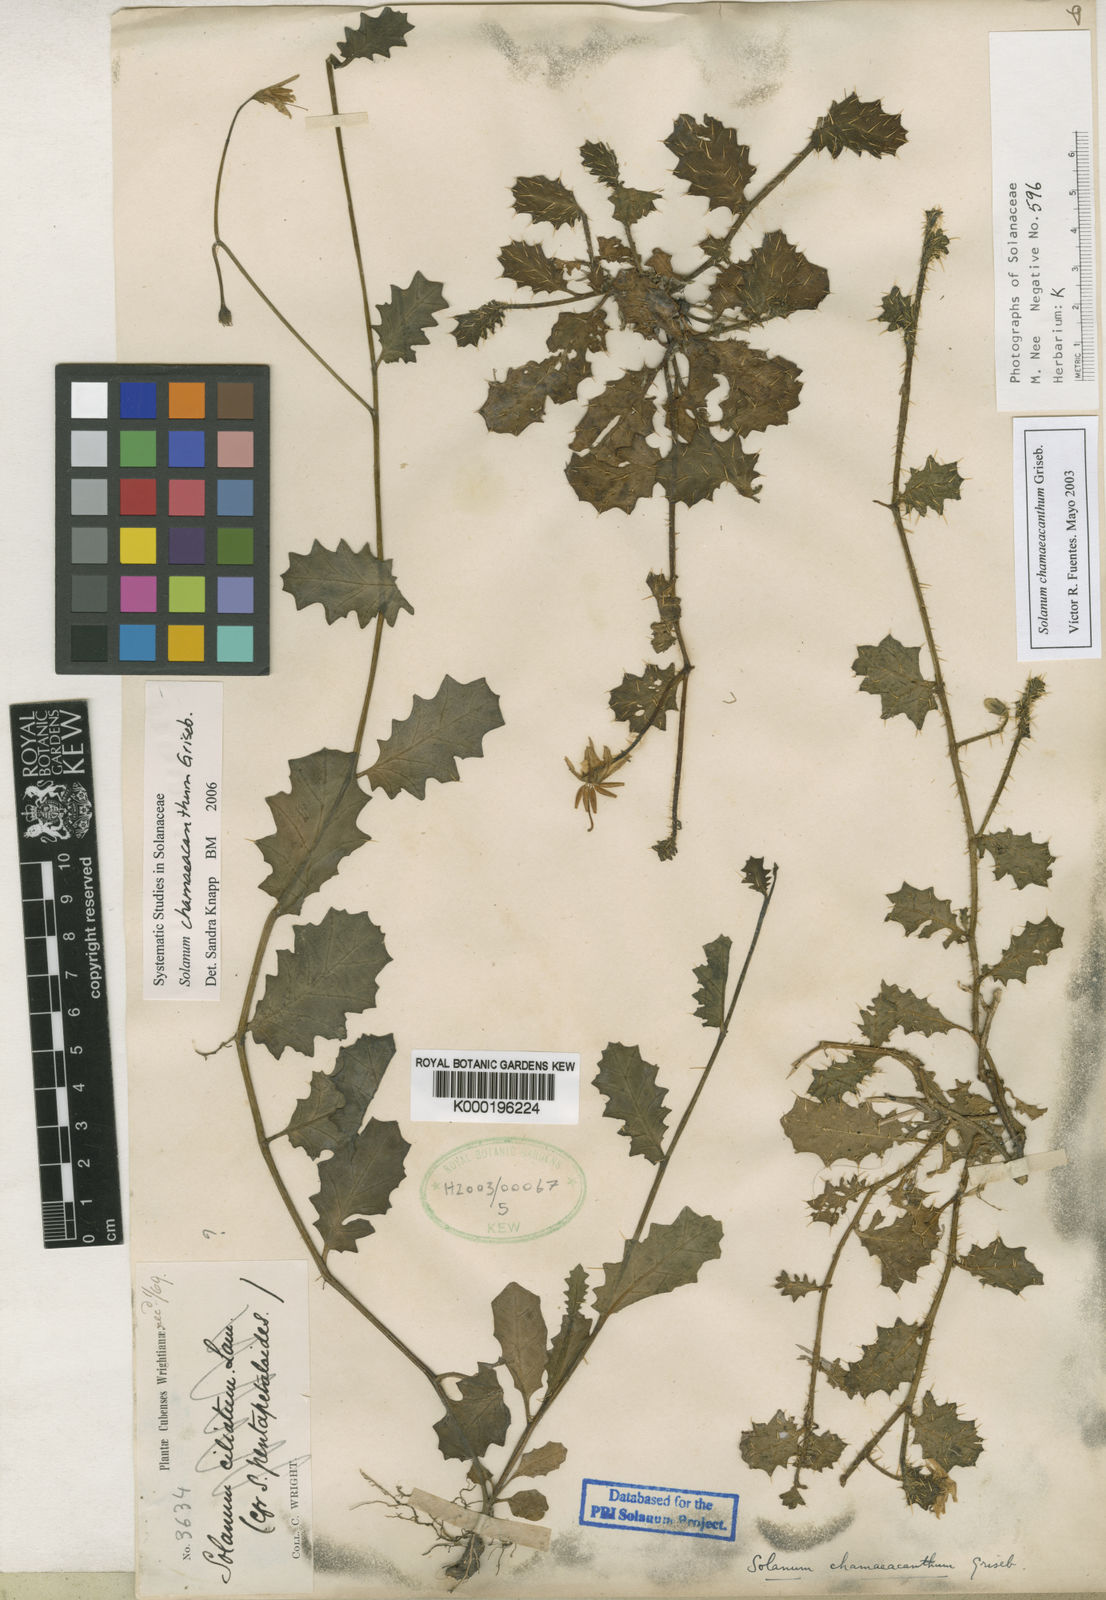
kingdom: Plantae
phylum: Tracheophyta
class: Magnoliopsida
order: Solanales
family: Solanaceae
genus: Solanum
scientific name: Solanum chamaeacanthum
